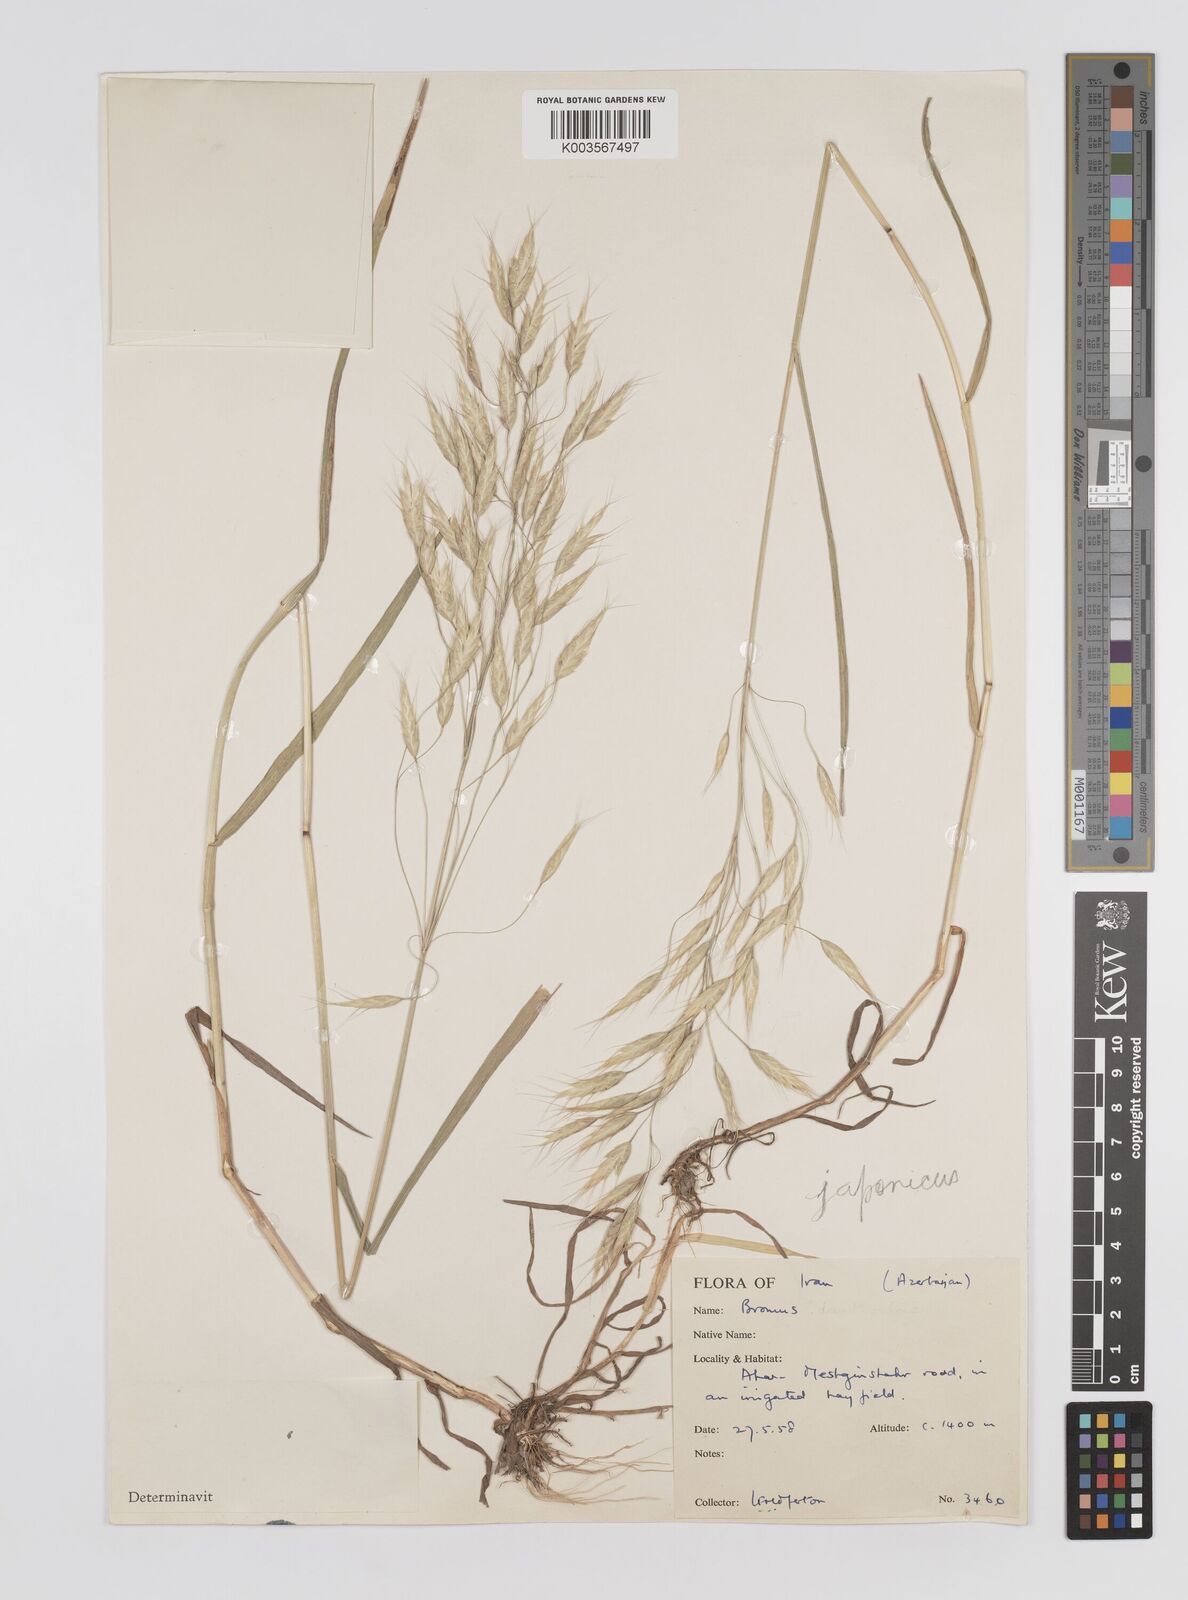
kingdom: Plantae
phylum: Tracheophyta
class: Liliopsida
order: Poales
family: Poaceae
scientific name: Poaceae
